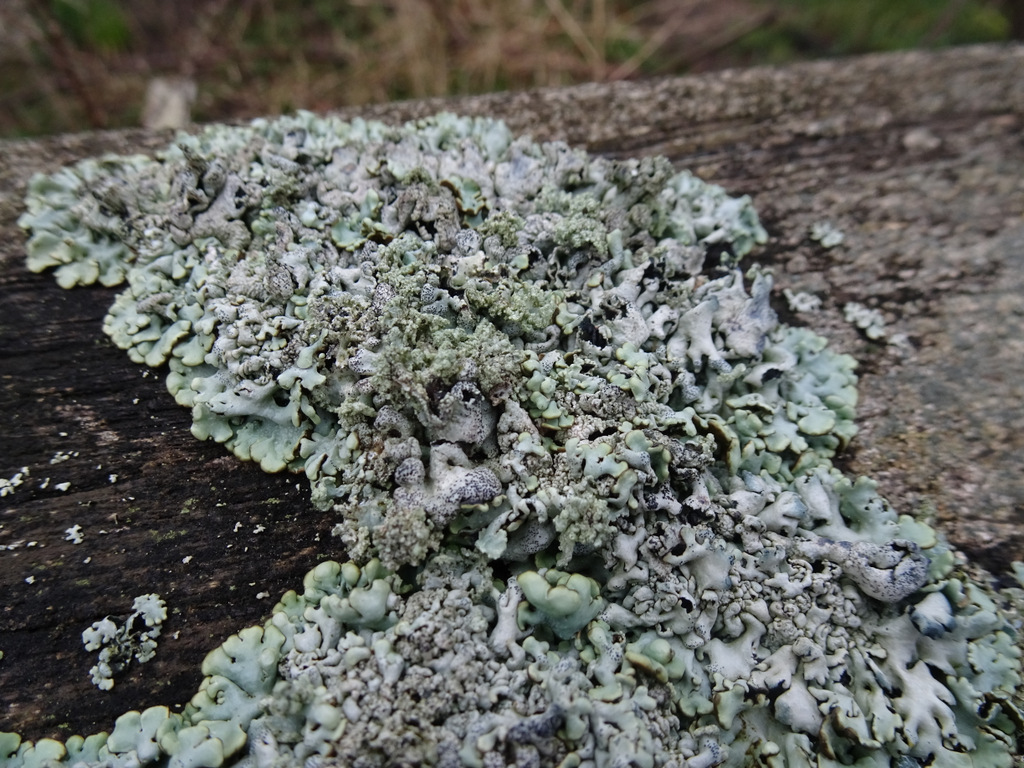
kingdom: Fungi
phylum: Ascomycota
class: Lecanoromycetes
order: Lecanorales
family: Parmeliaceae
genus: Hypogymnia
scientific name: Hypogymnia physodes
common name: almindelig kvistlav
